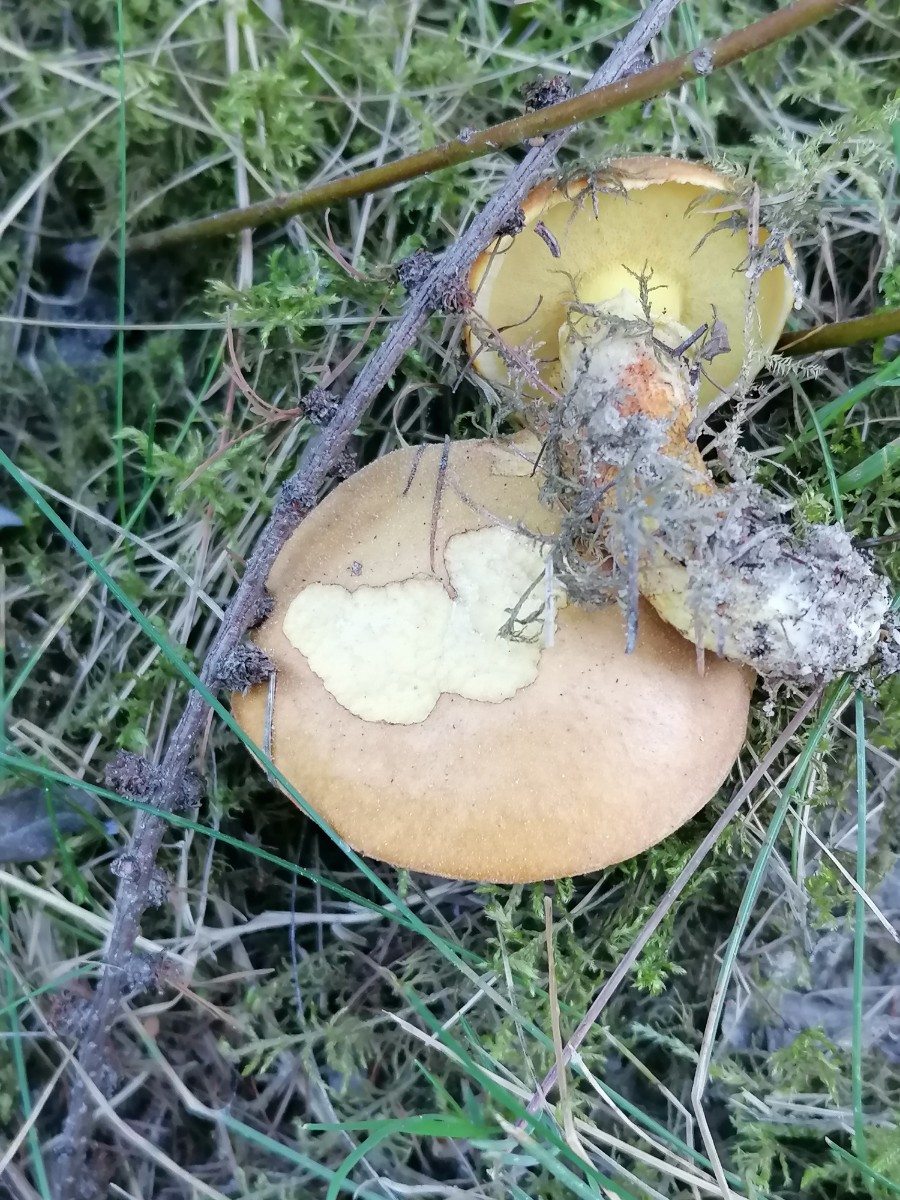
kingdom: Fungi
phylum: Basidiomycota
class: Agaricomycetes
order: Boletales
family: Suillaceae
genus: Suillus
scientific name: Suillus grevillei
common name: lærke-slimrørhat
